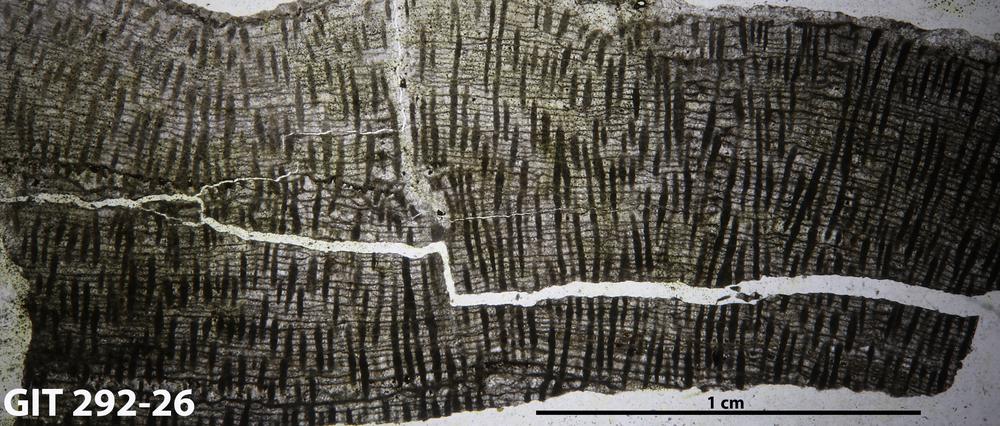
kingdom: Animalia
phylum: Porifera
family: Stromatoceriidae
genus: Cystocerium
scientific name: Cystocerium
